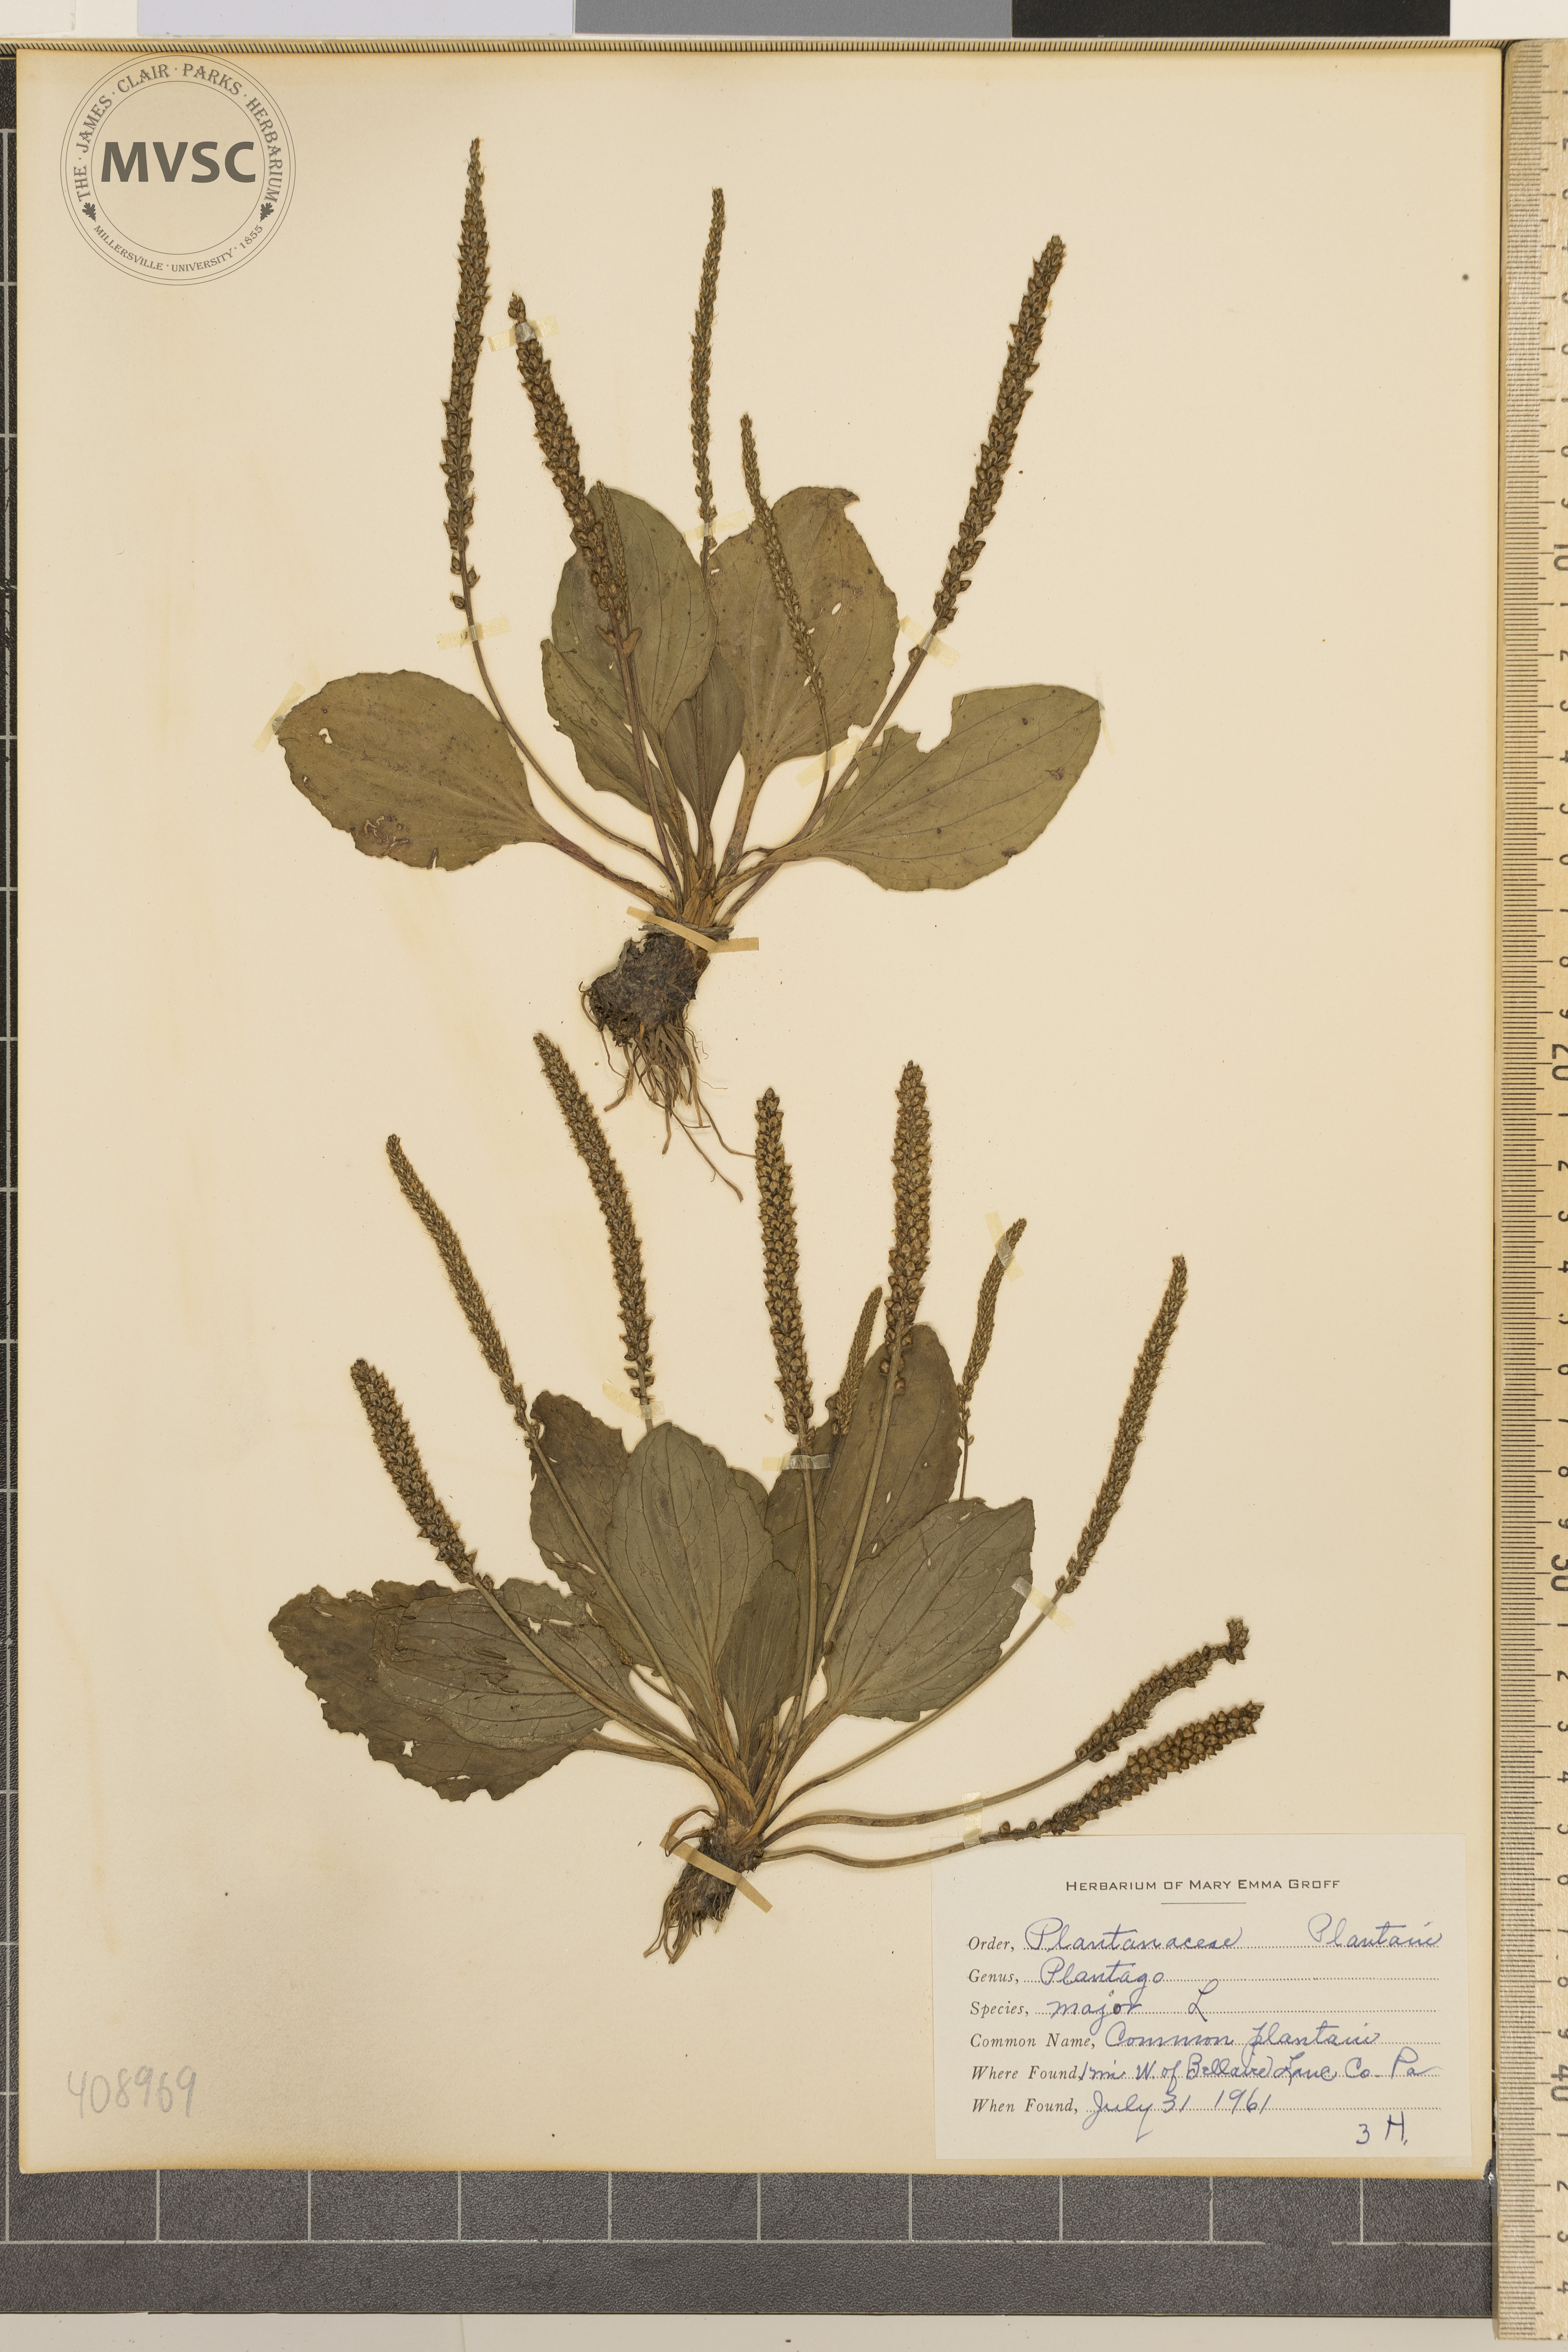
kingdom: Plantae
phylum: Tracheophyta
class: Magnoliopsida
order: Lamiales
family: Plantaginaceae
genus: Plantago
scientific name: Plantago major
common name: Common plantain
